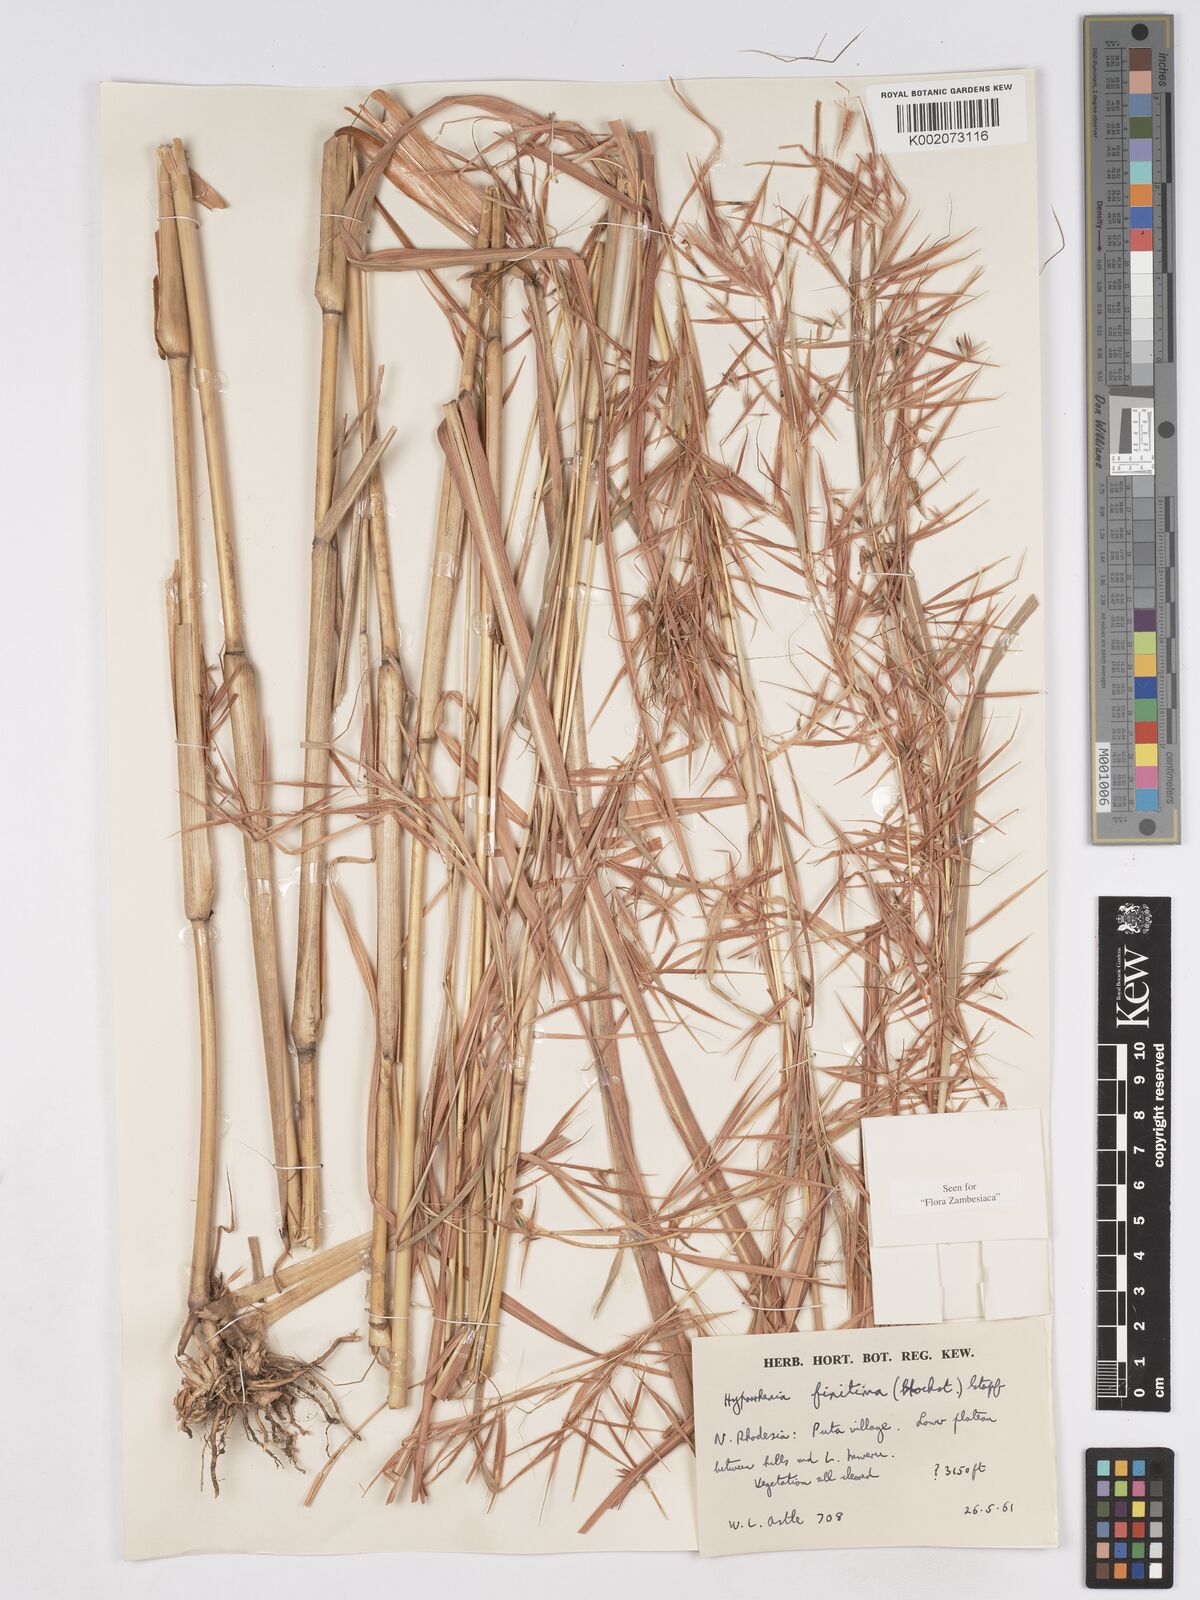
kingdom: Plantae
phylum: Tracheophyta
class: Liliopsida
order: Poales
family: Poaceae
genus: Hyparrhenia
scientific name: Hyparrhenia finitima
